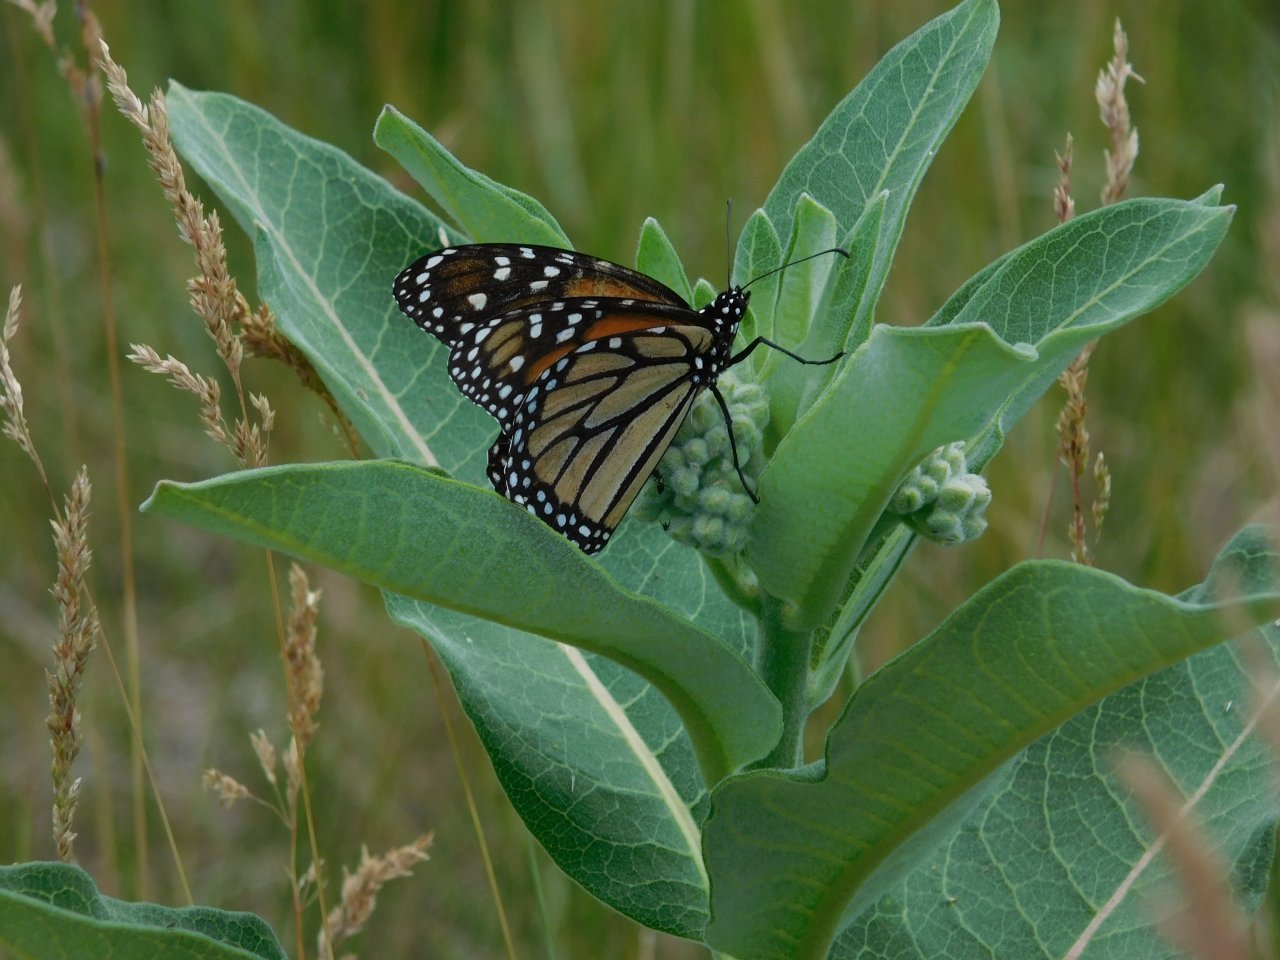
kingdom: Animalia
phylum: Arthropoda
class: Insecta
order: Lepidoptera
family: Nymphalidae
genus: Danaus
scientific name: Danaus plexippus
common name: Monarch
